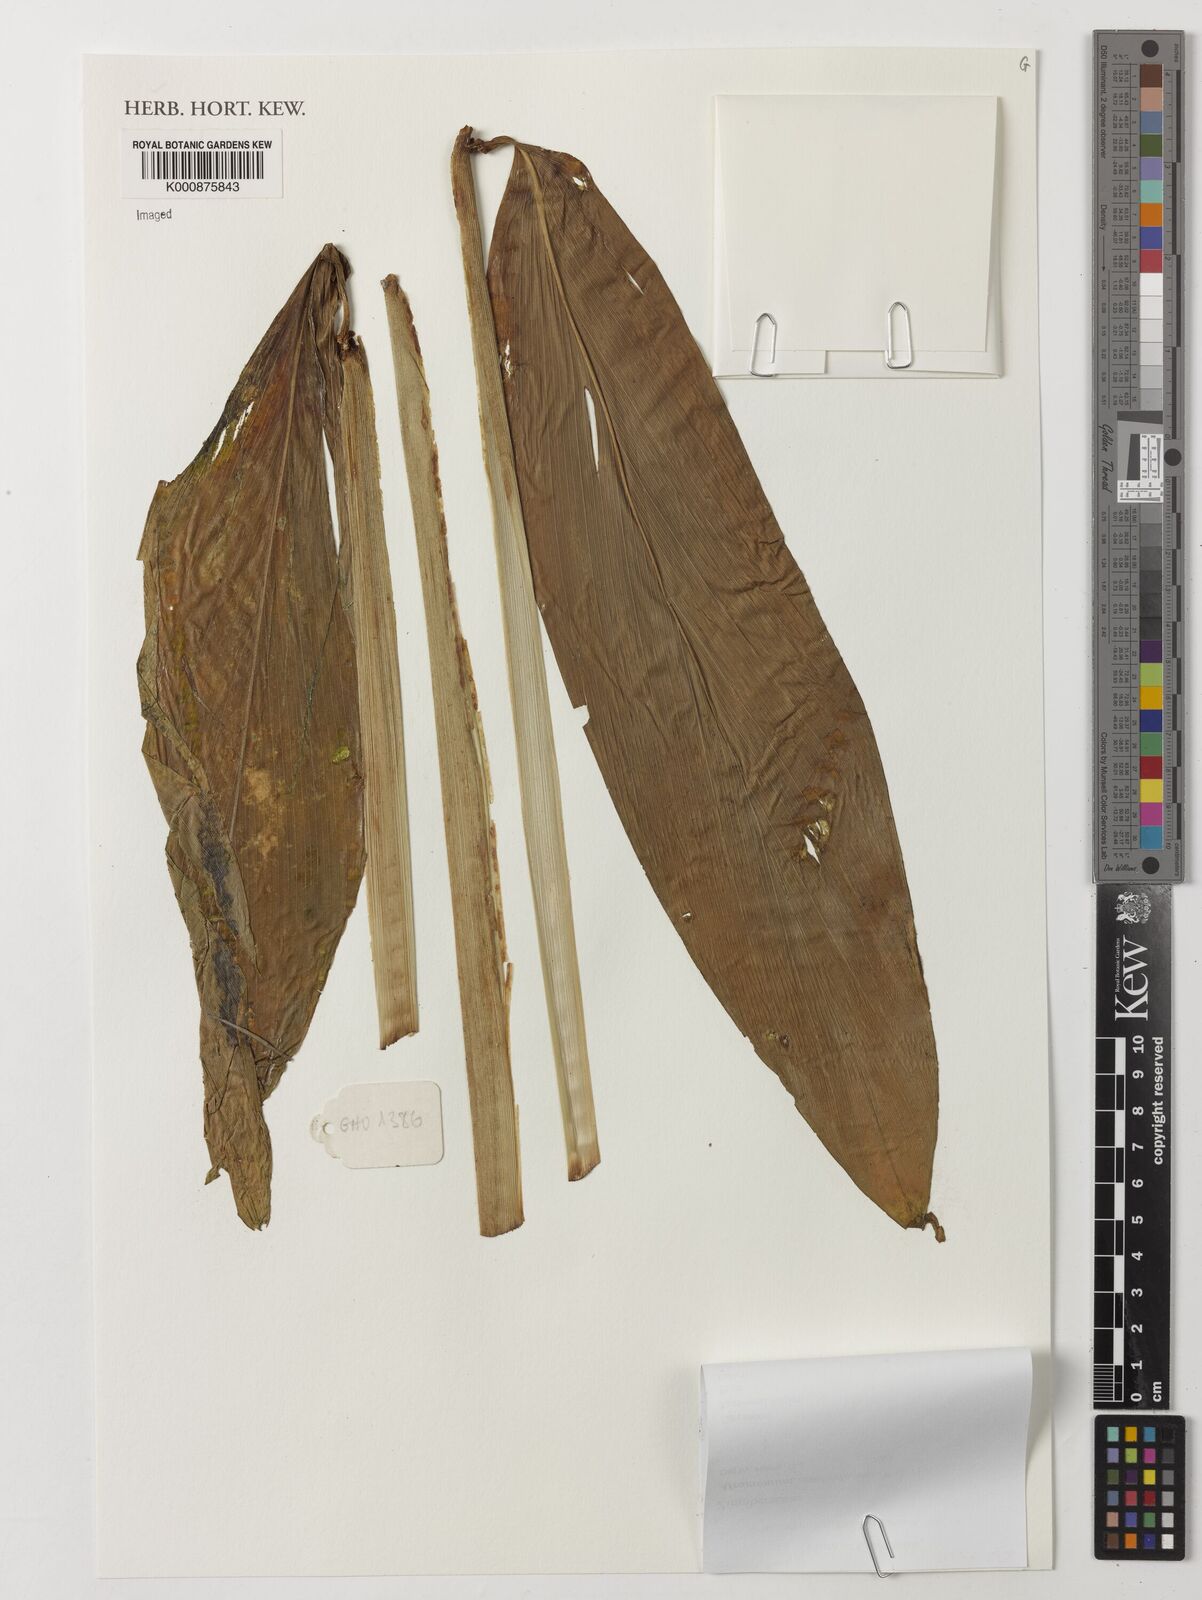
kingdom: Plantae
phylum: Tracheophyta
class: Liliopsida
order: Zingiberales
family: Zingiberaceae
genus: Aframomum
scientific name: Aframomum zambesiacum
